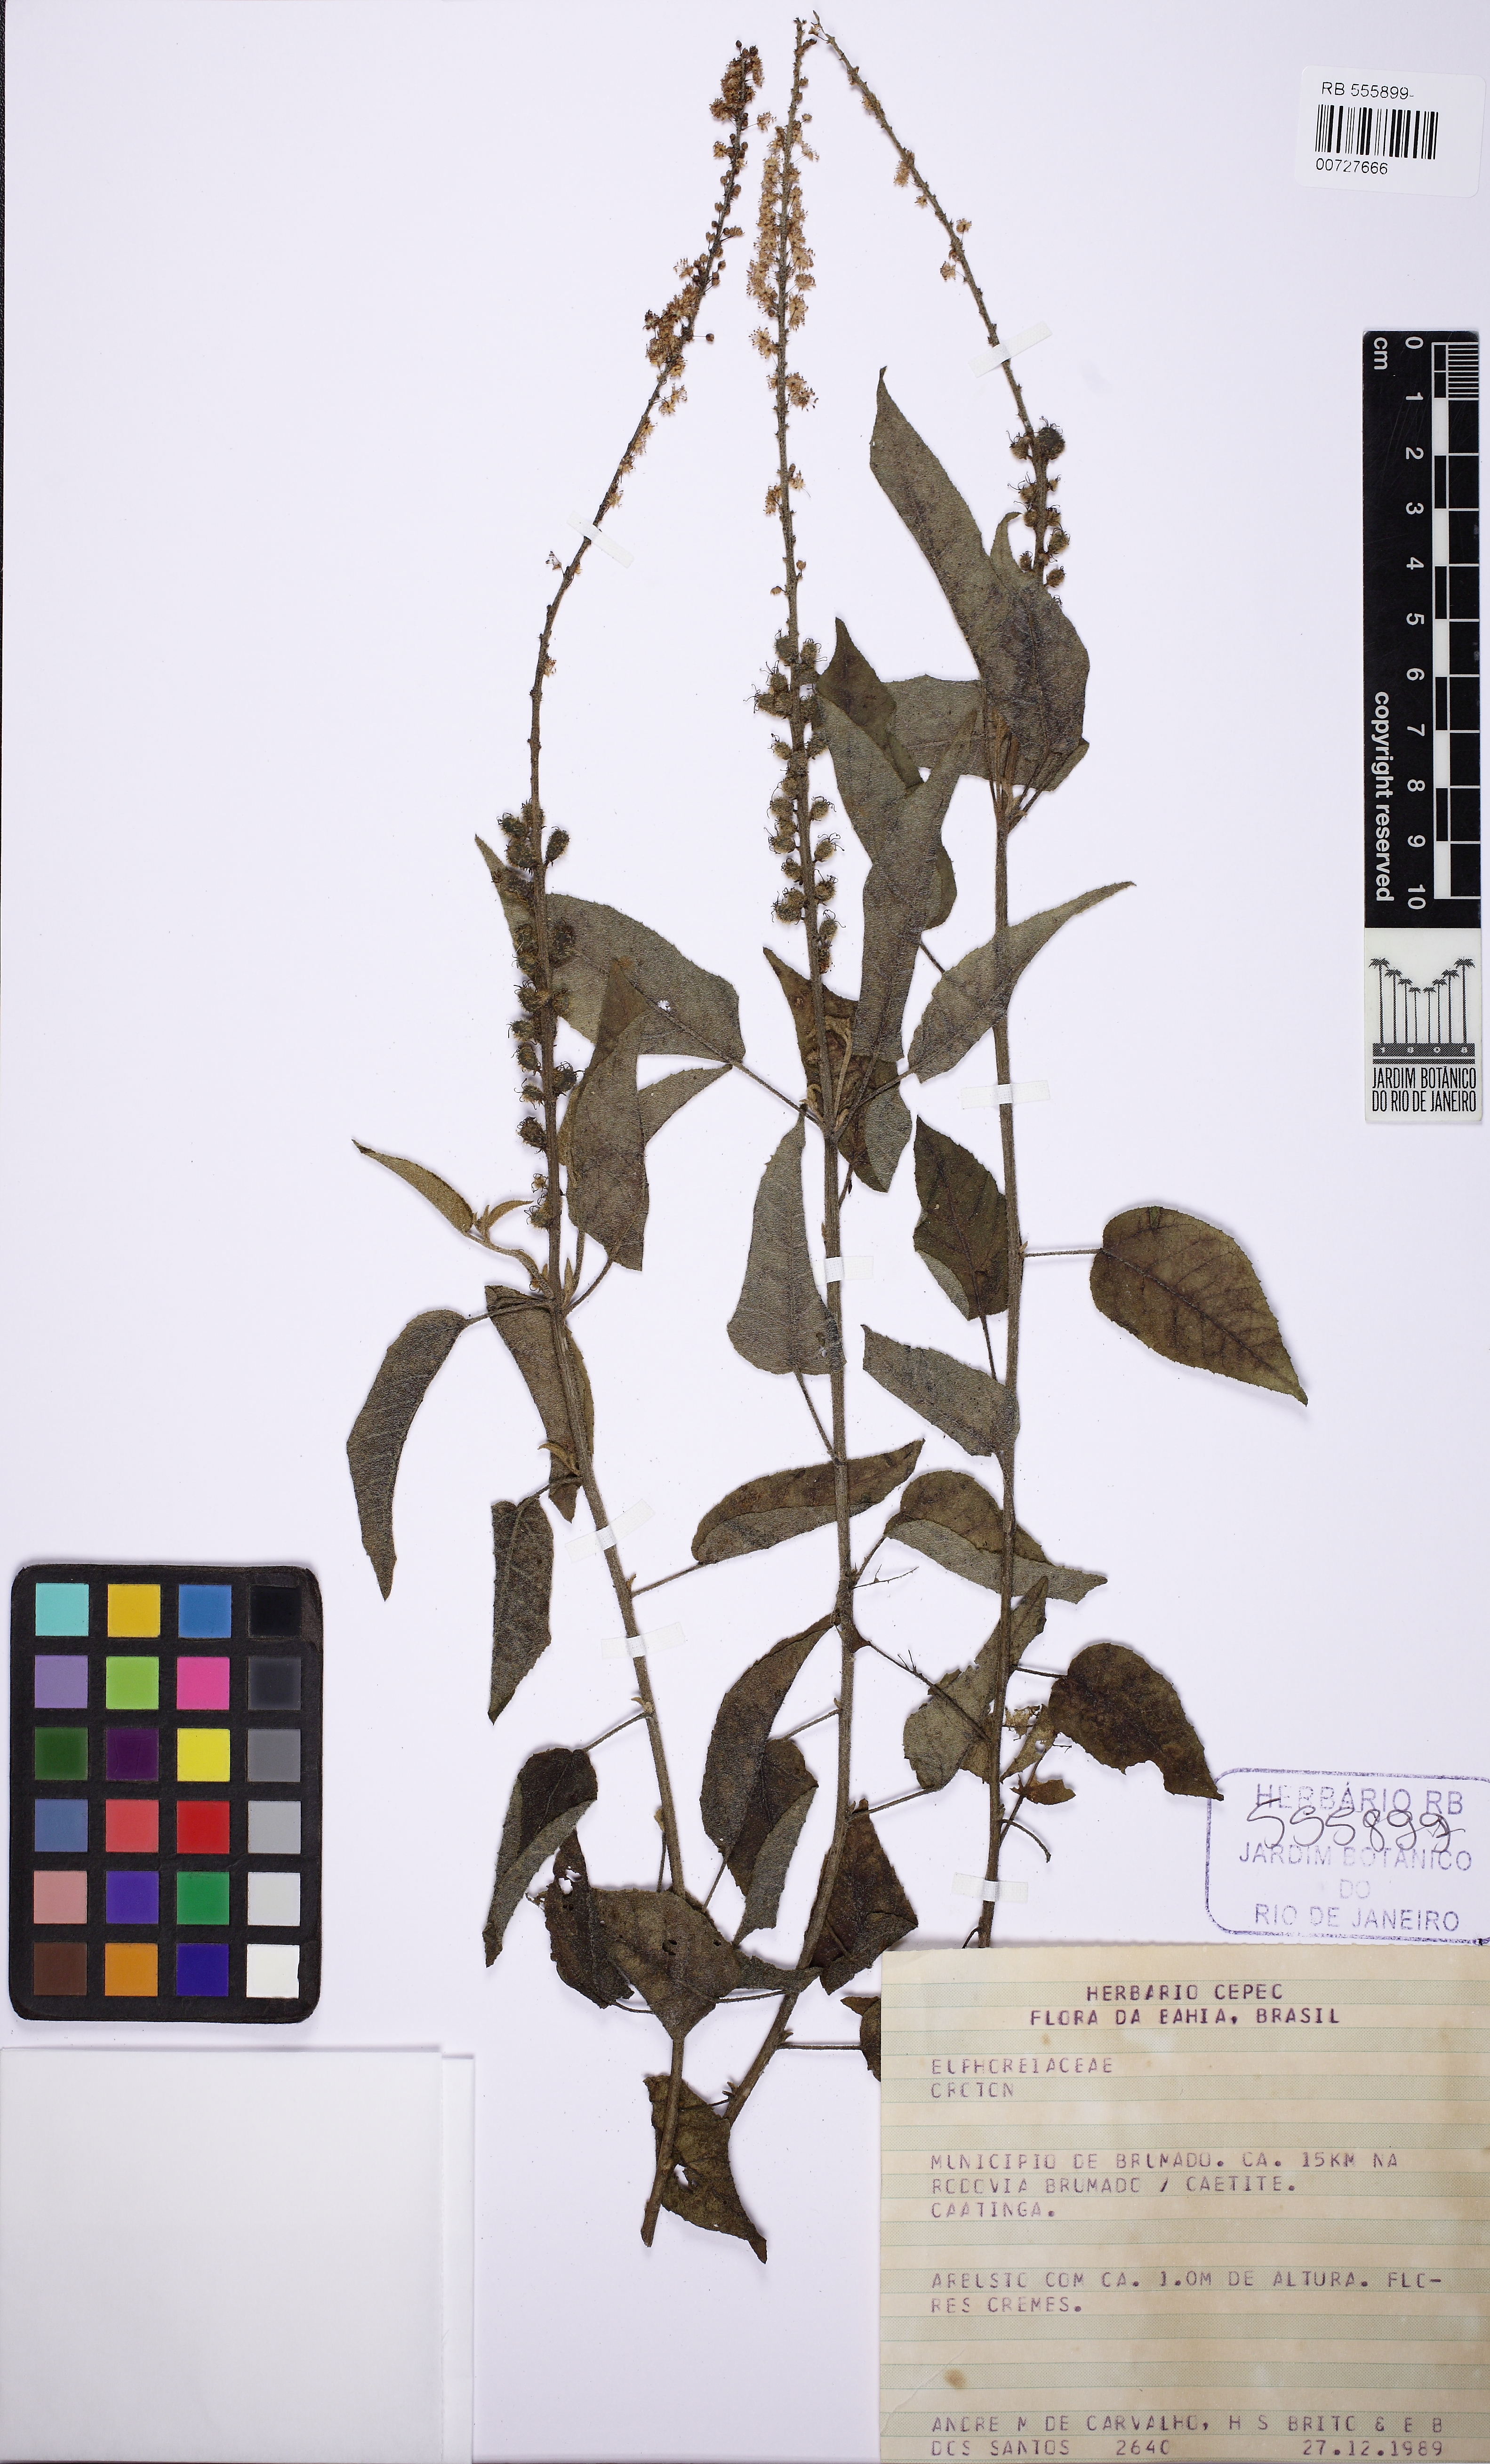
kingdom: Plantae
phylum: Tracheophyta
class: Magnoliopsida
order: Malpighiales
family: Euphorbiaceae
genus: Croton
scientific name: Croton
